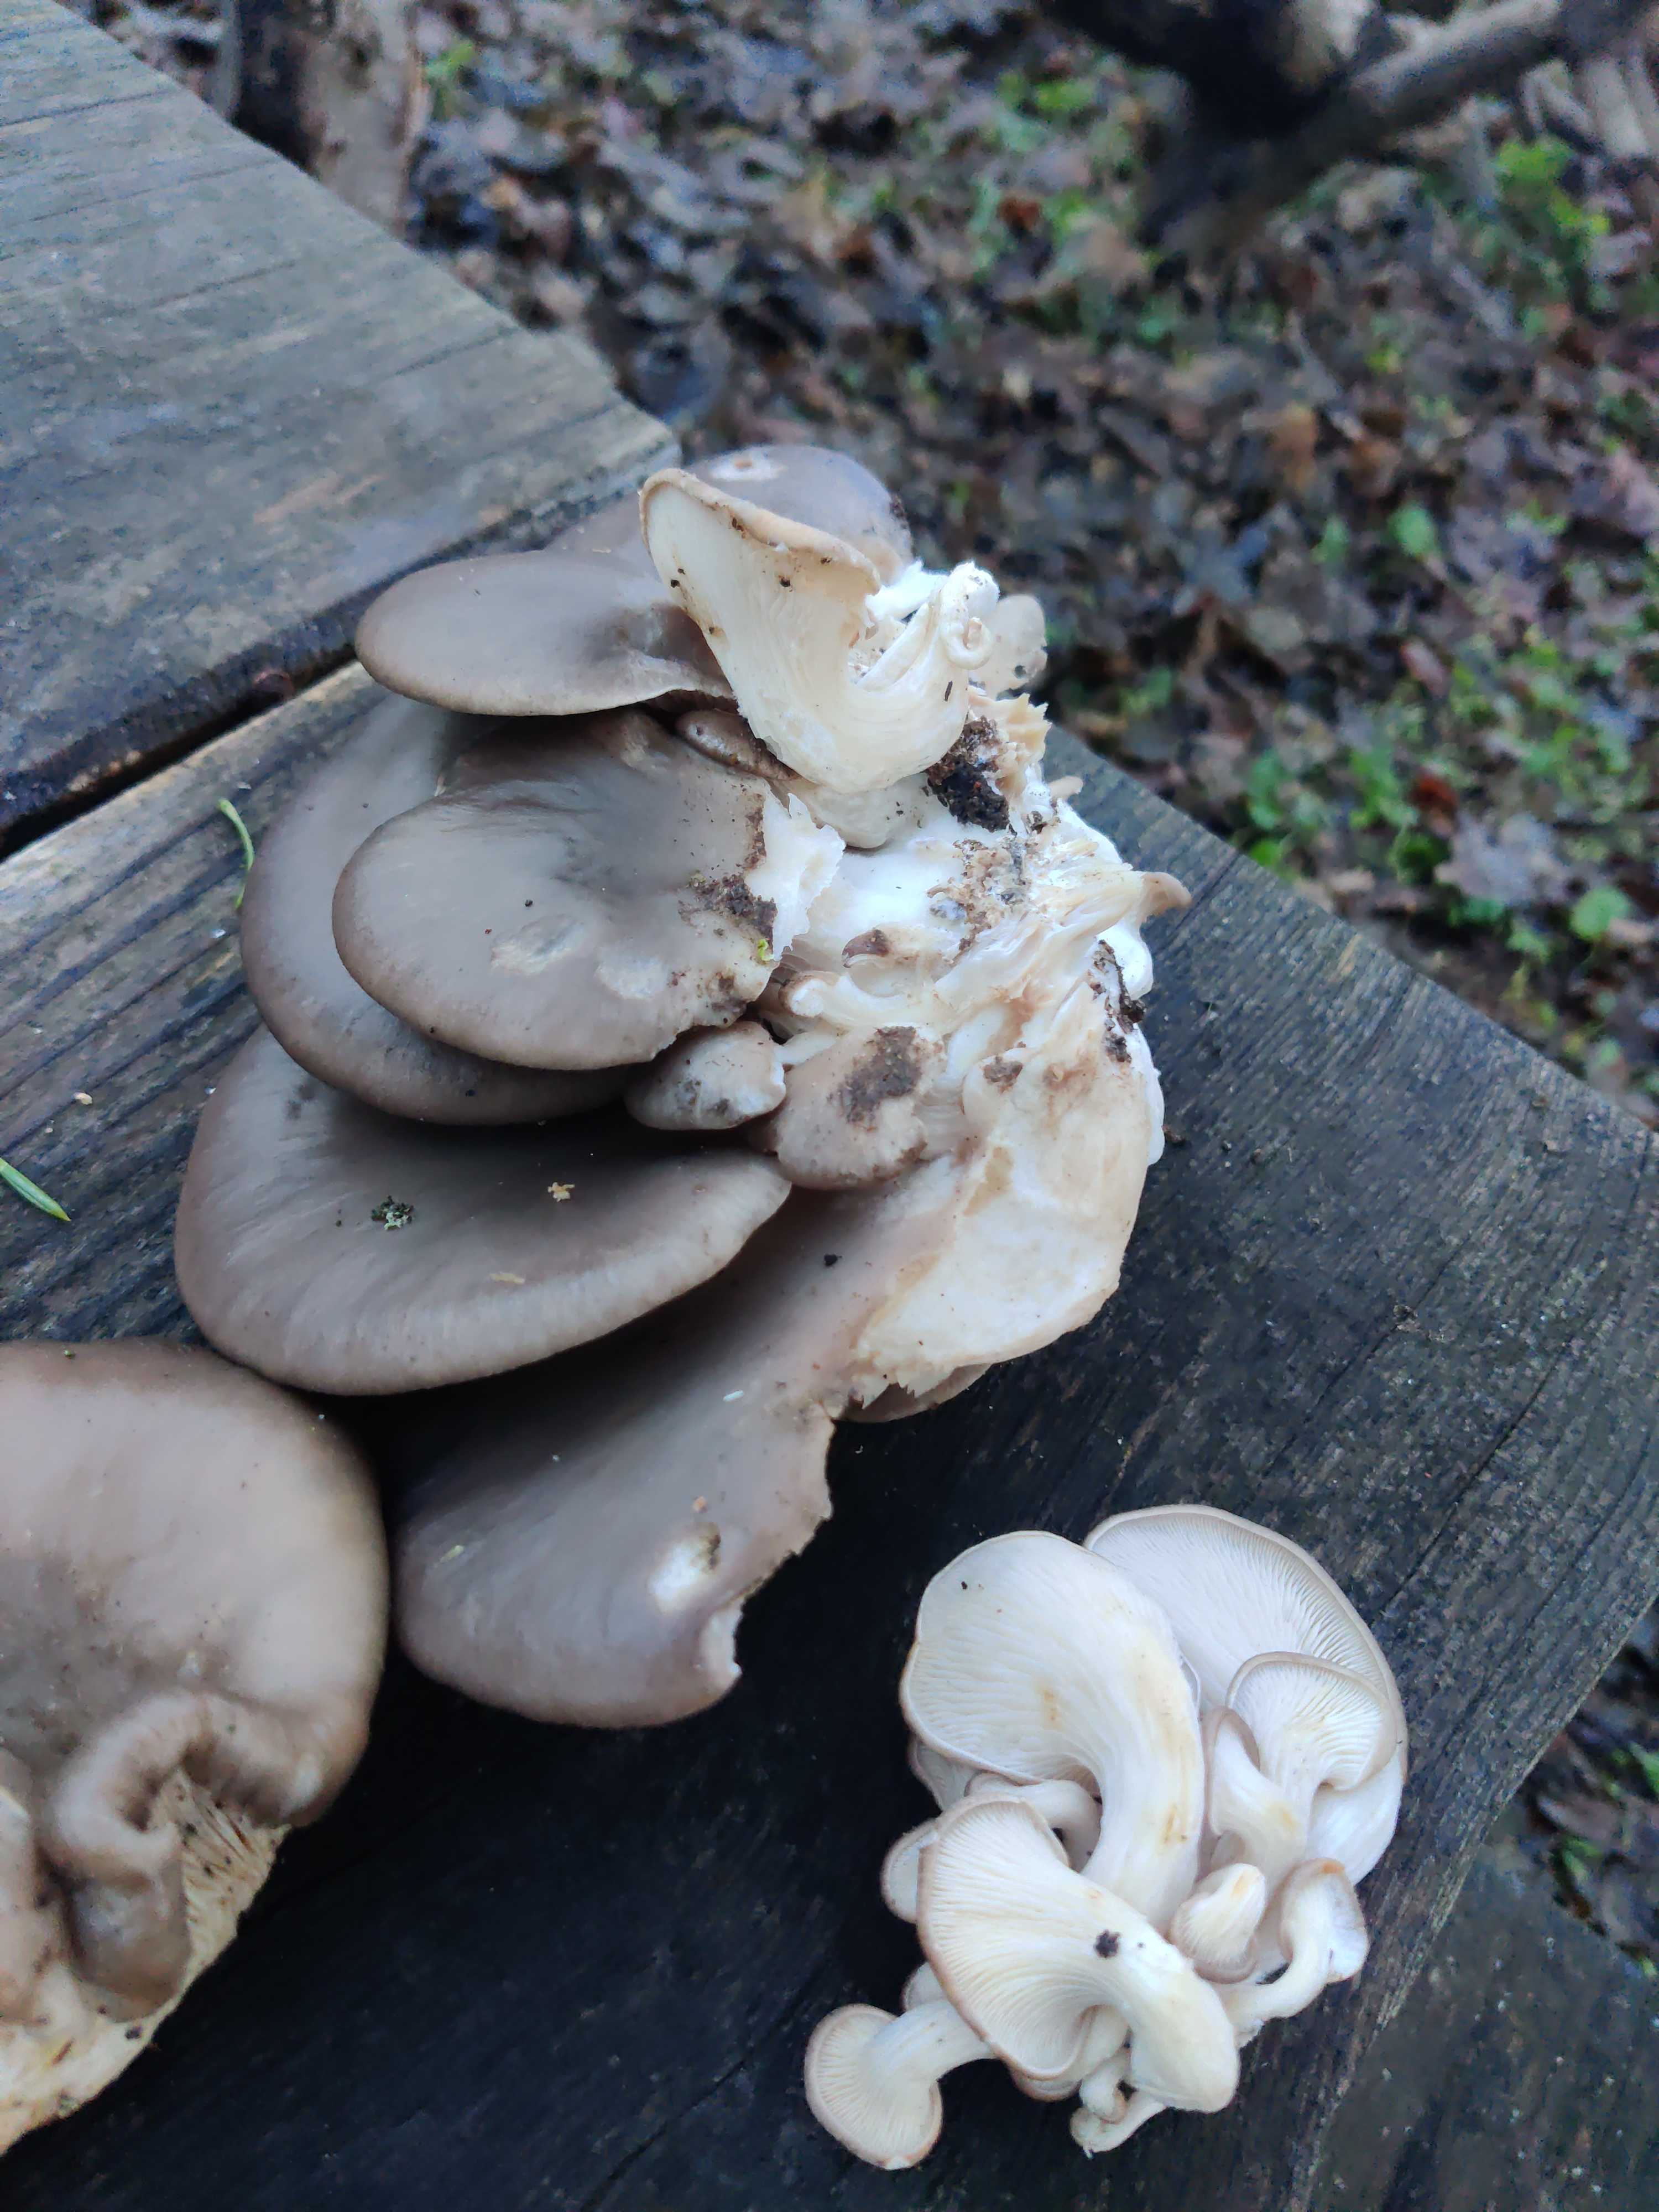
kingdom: Fungi
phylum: Basidiomycota
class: Agaricomycetes
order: Agaricales
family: Pleurotaceae
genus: Pleurotus
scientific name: Pleurotus ostreatus
